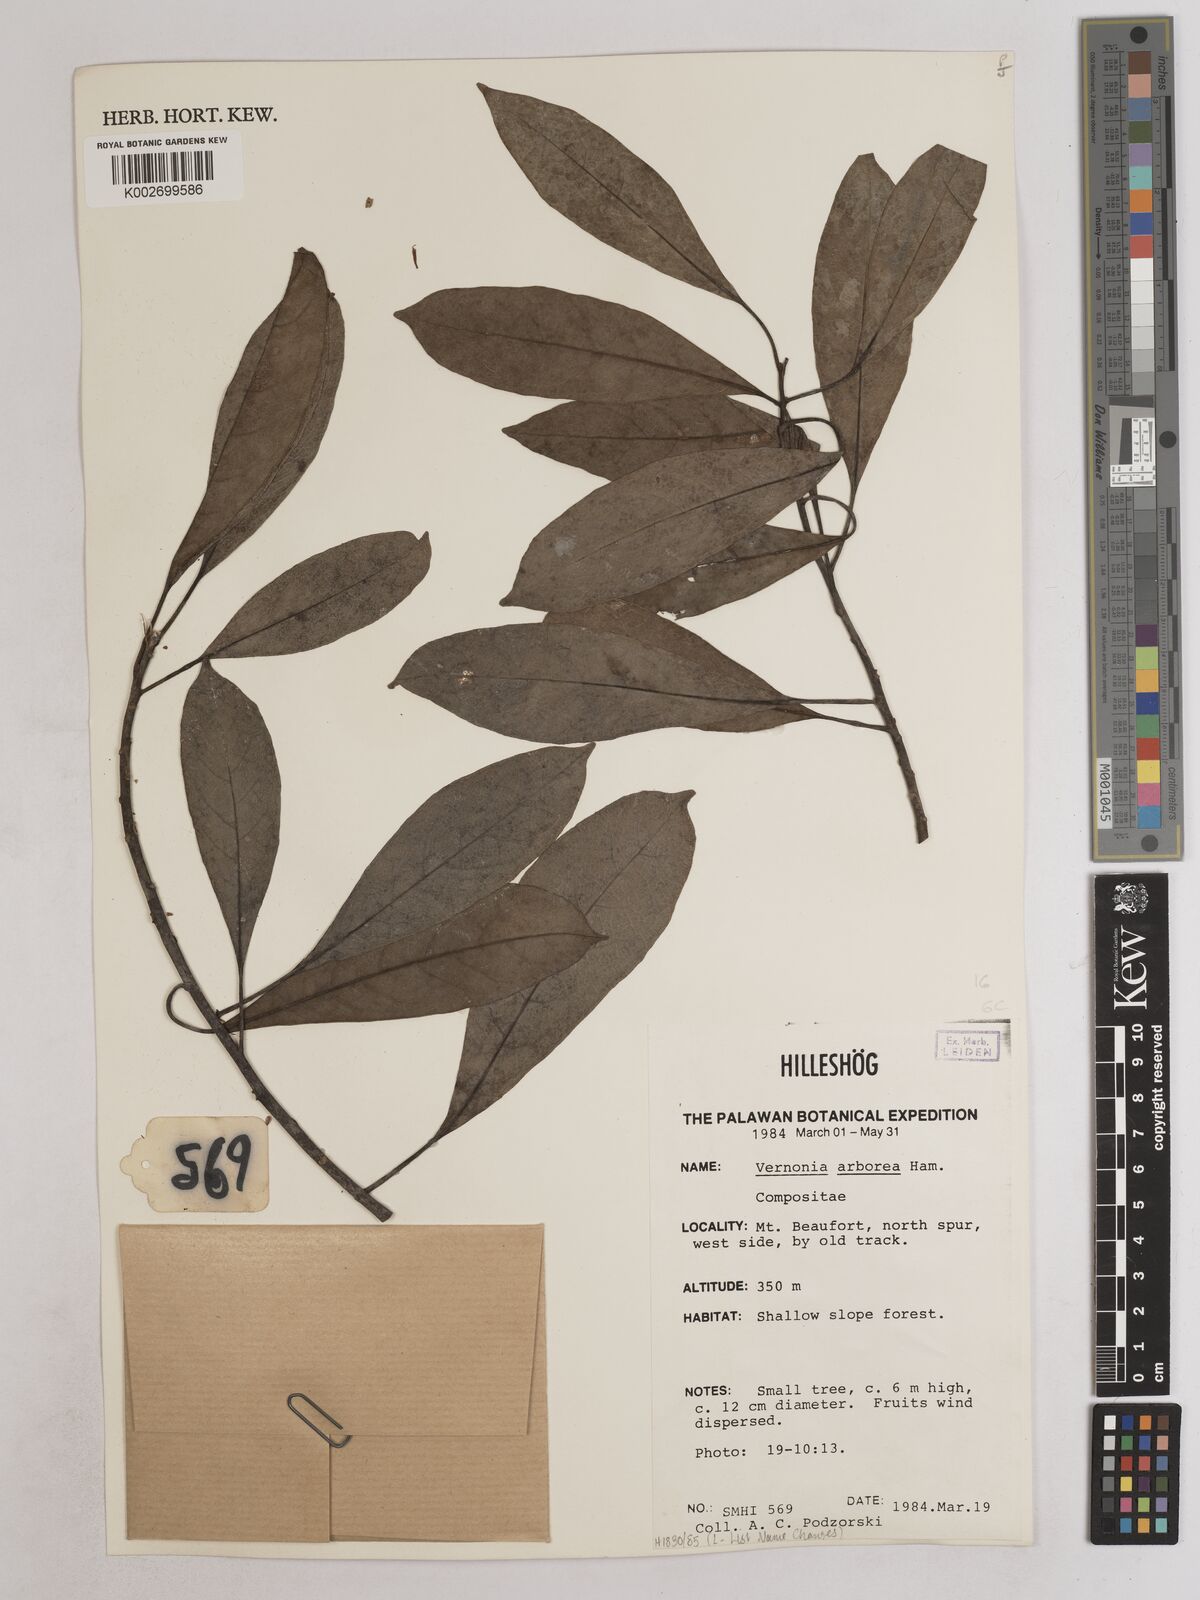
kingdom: Plantae
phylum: Tracheophyta
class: Magnoliopsida
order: Asterales
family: Asteraceae
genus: Strobocalyx
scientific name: Strobocalyx arborea
